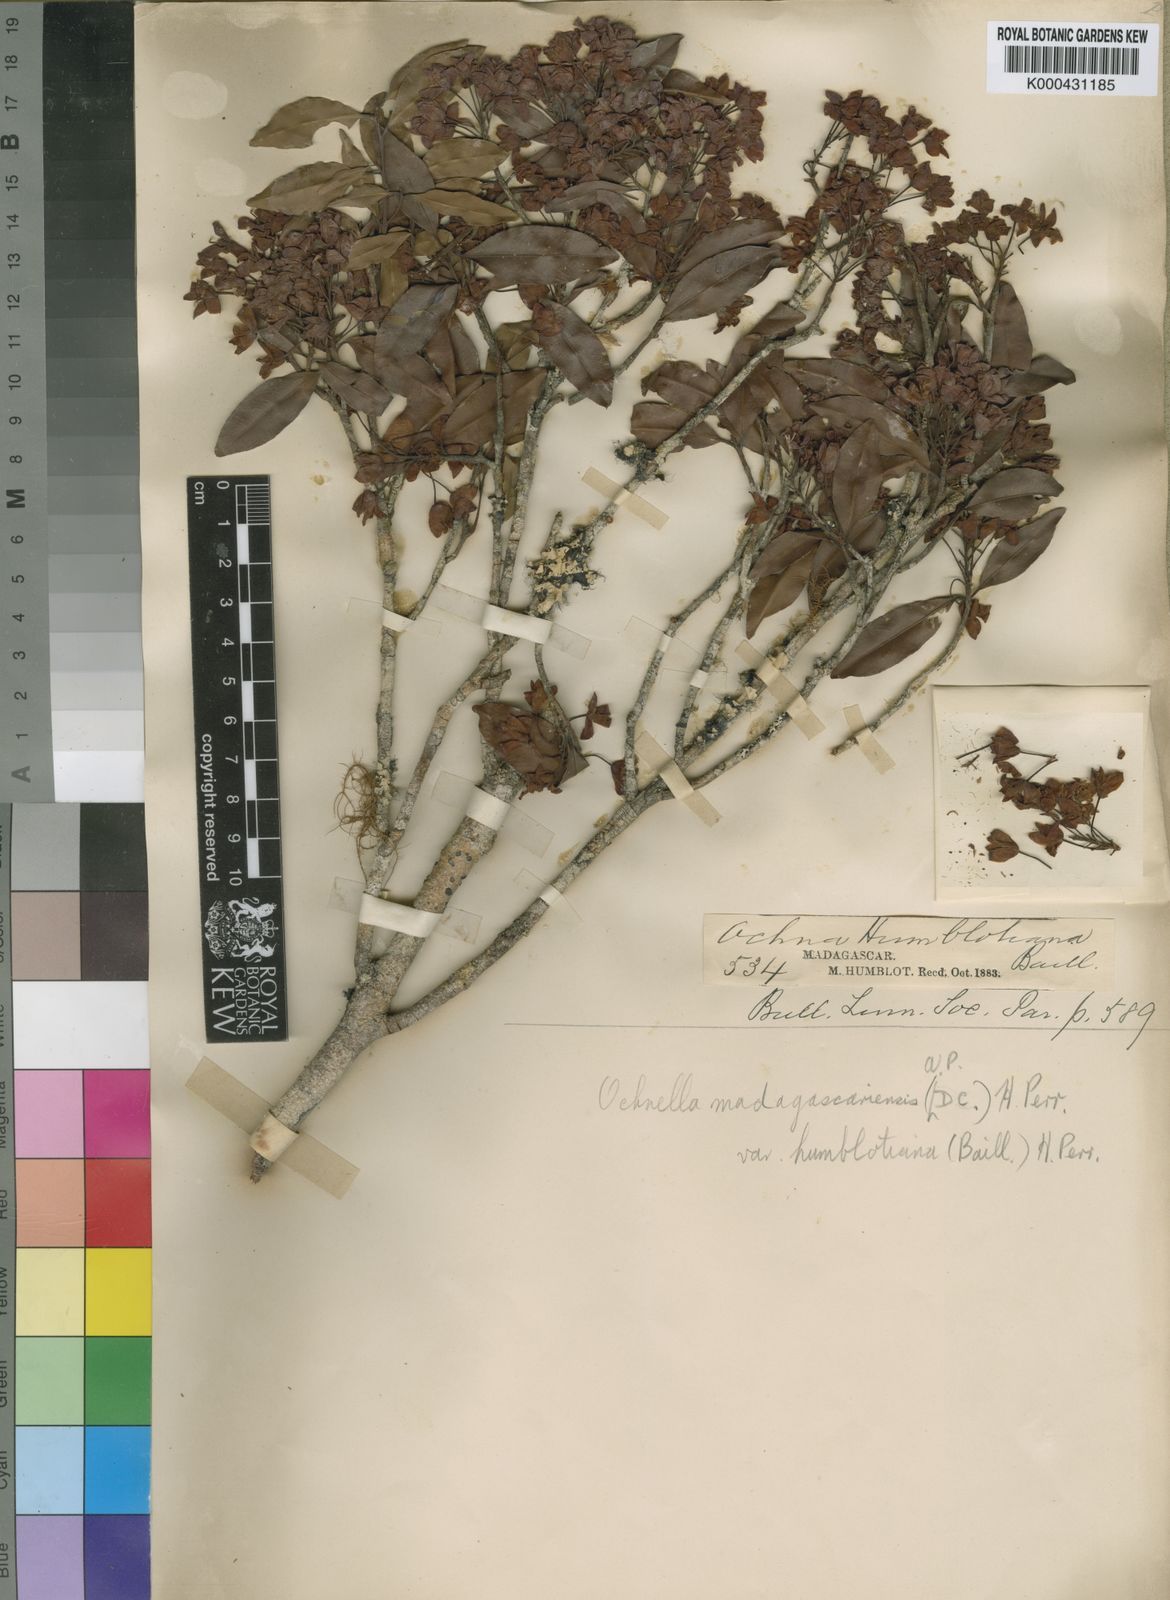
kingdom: Plantae
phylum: Tracheophyta
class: Magnoliopsida
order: Malpighiales
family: Ochnaceae
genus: Ochna
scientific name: Ochna madagascariensis
